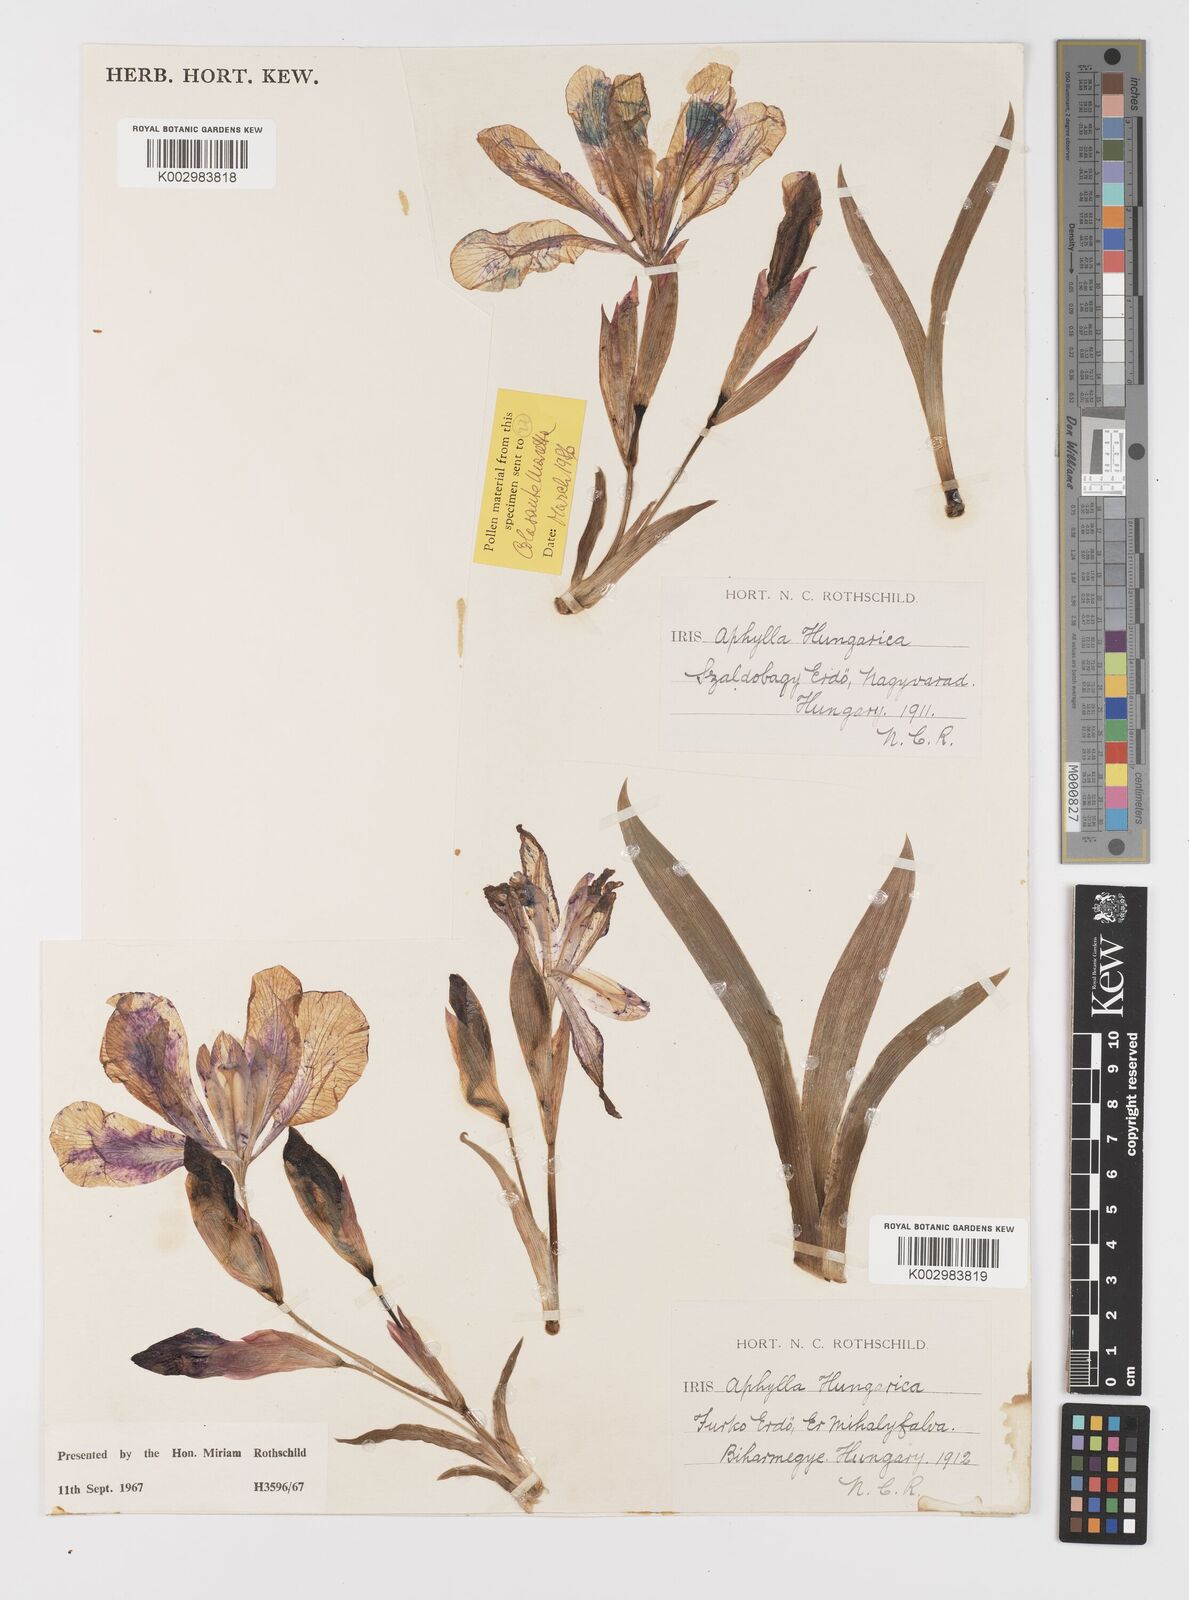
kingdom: Plantae
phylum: Tracheophyta
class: Liliopsida
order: Asparagales
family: Iridaceae
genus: Iris
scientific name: Iris aphylla
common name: Stool iris
